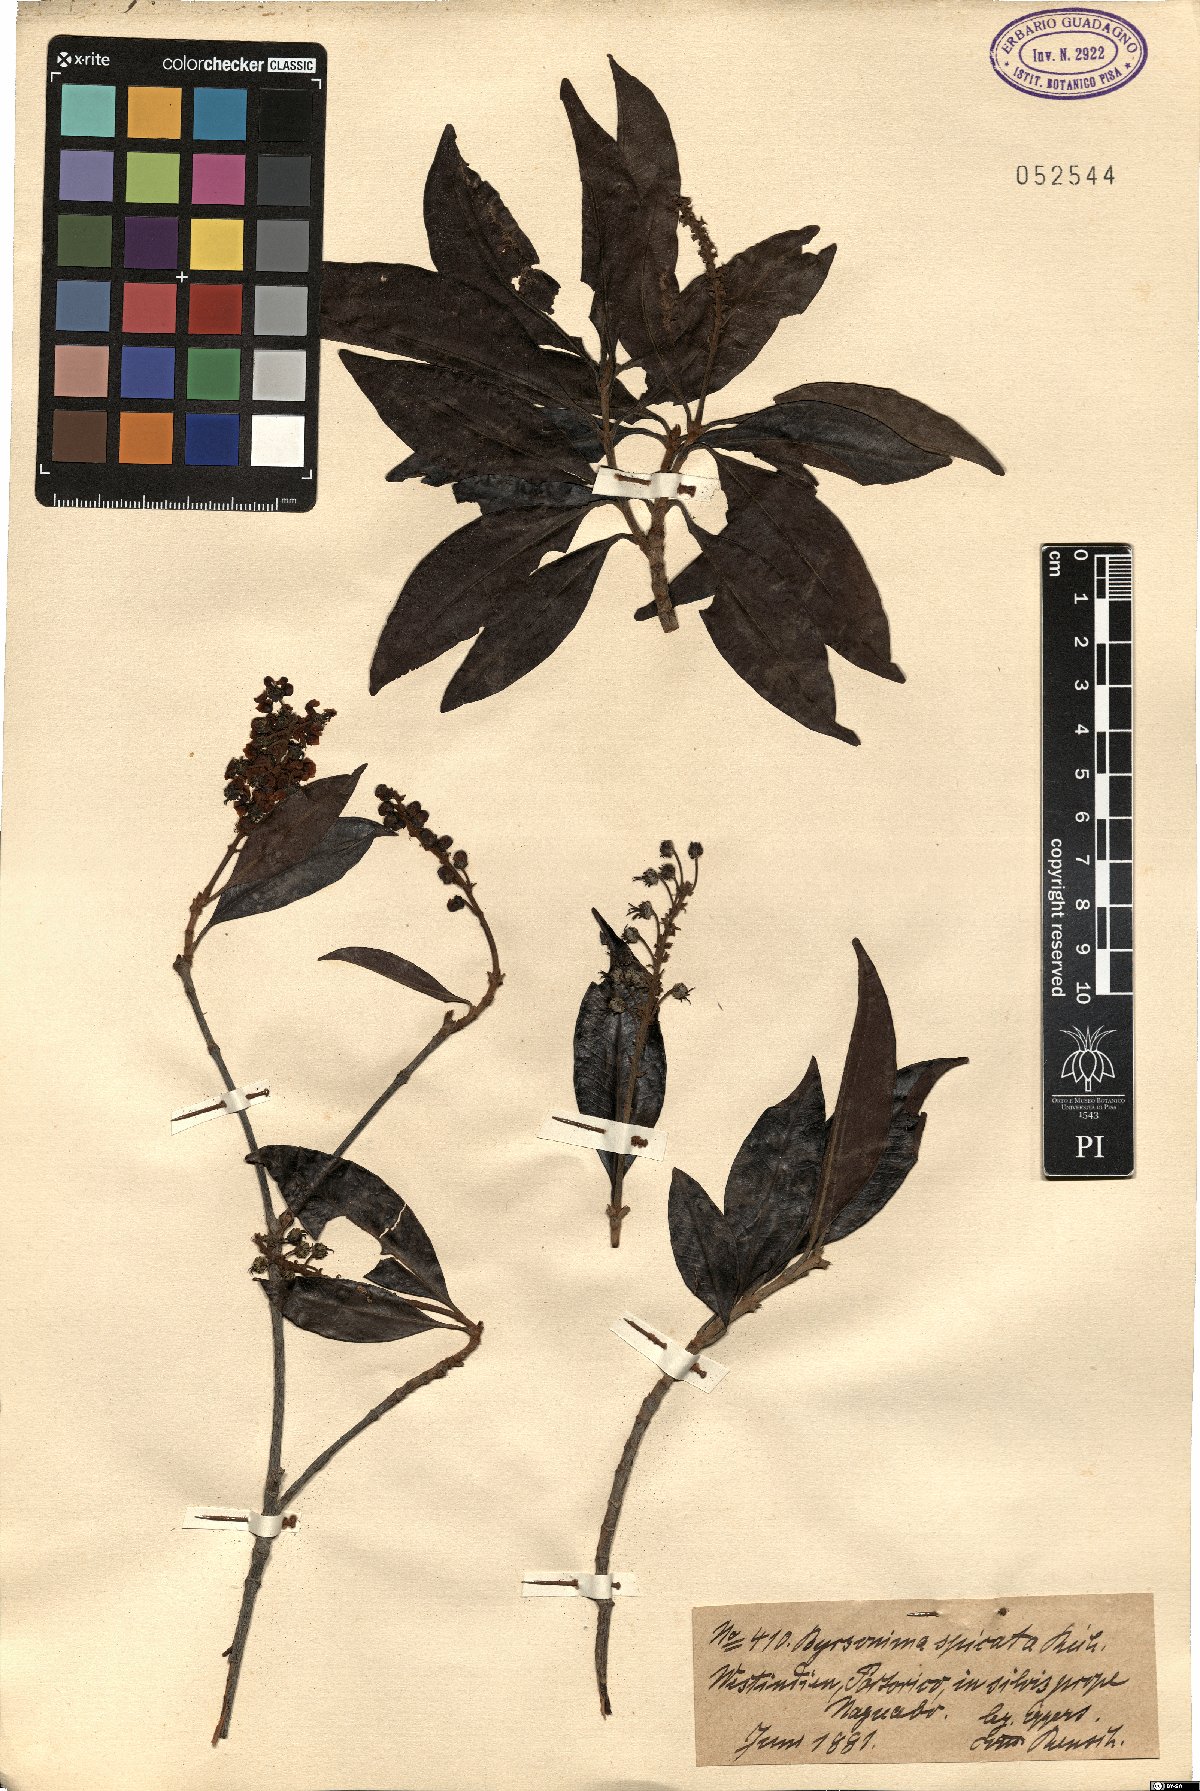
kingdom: Plantae
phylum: Tracheophyta
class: Magnoliopsida
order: Malpighiales
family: Malpighiaceae
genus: Heteropterys
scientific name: Heteropterys platyptera
